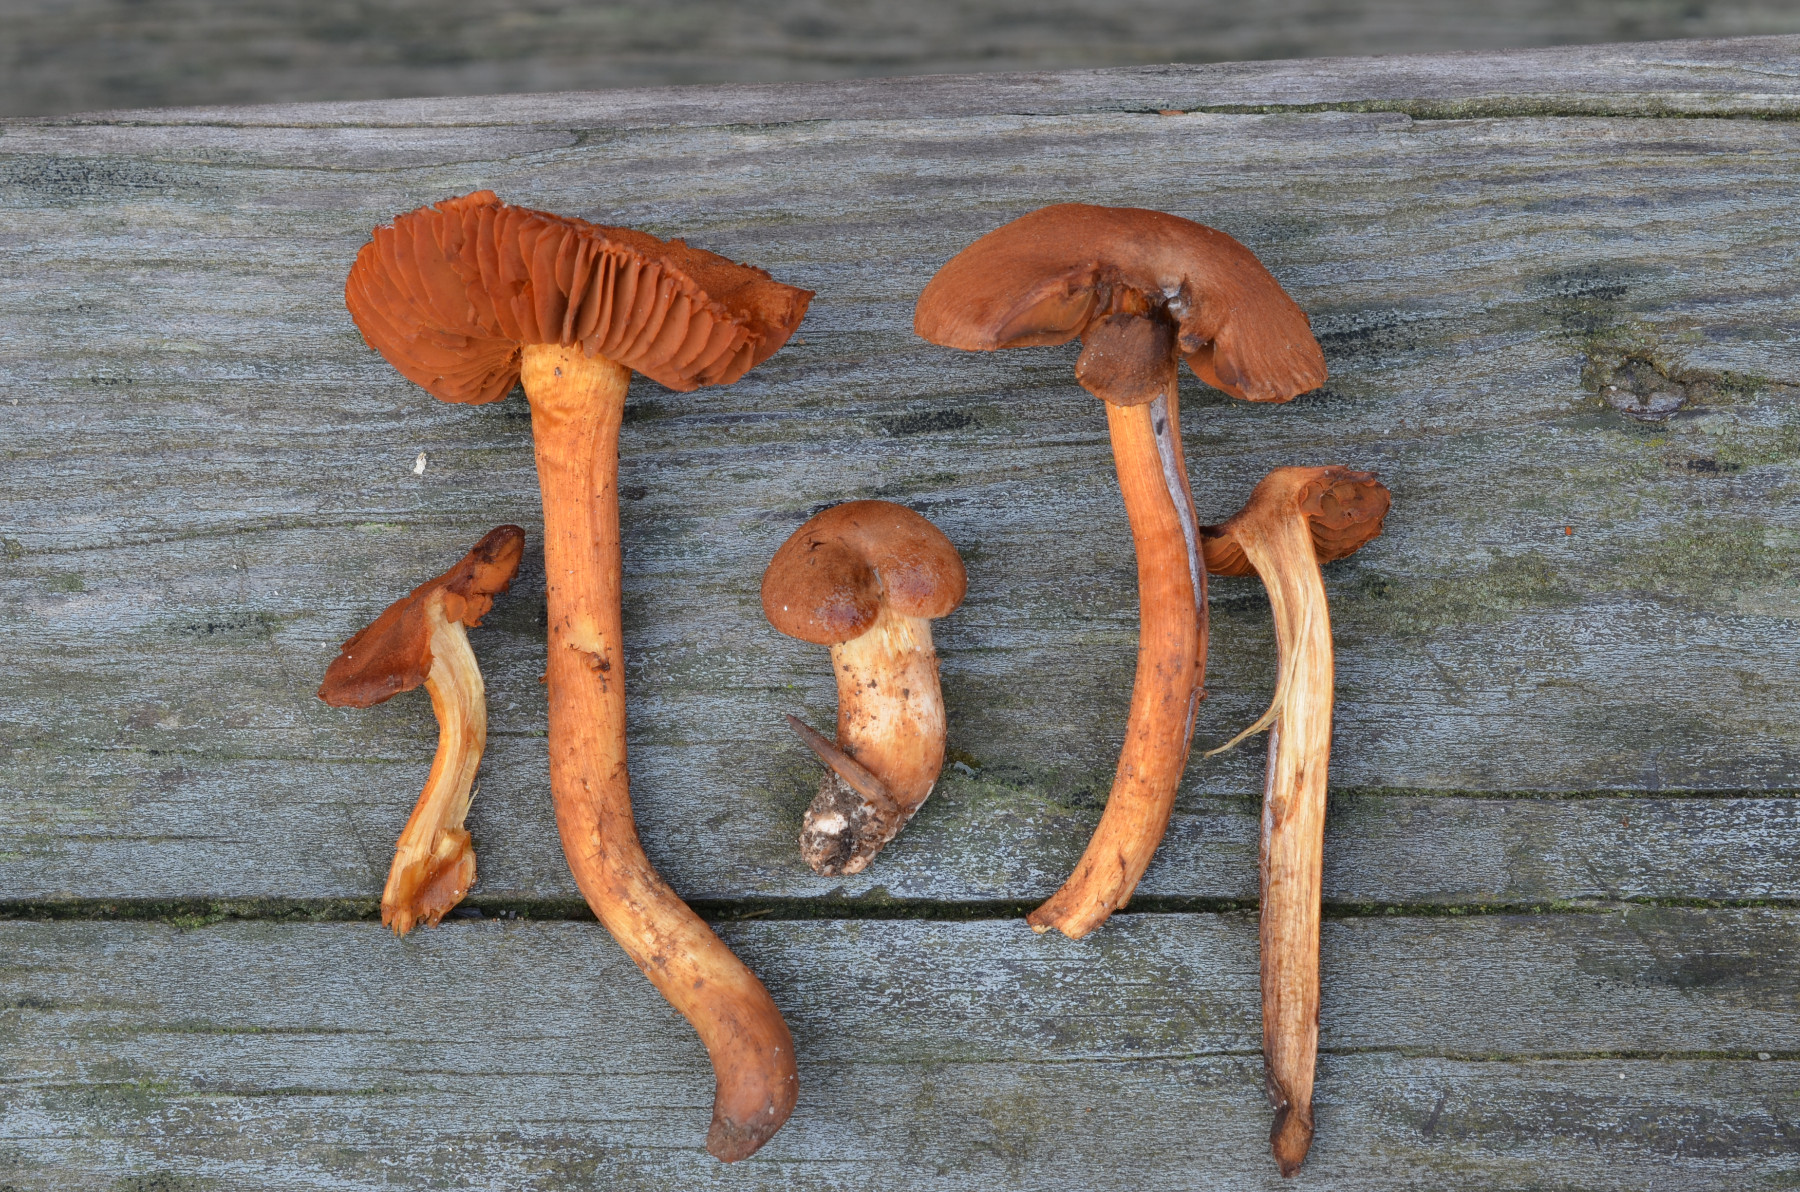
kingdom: Fungi
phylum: Basidiomycota
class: Agaricomycetes
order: Agaricales
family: Cortinariaceae
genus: Cortinarius
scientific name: Cortinarius orellanus
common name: hvælvet gift-slørhat
